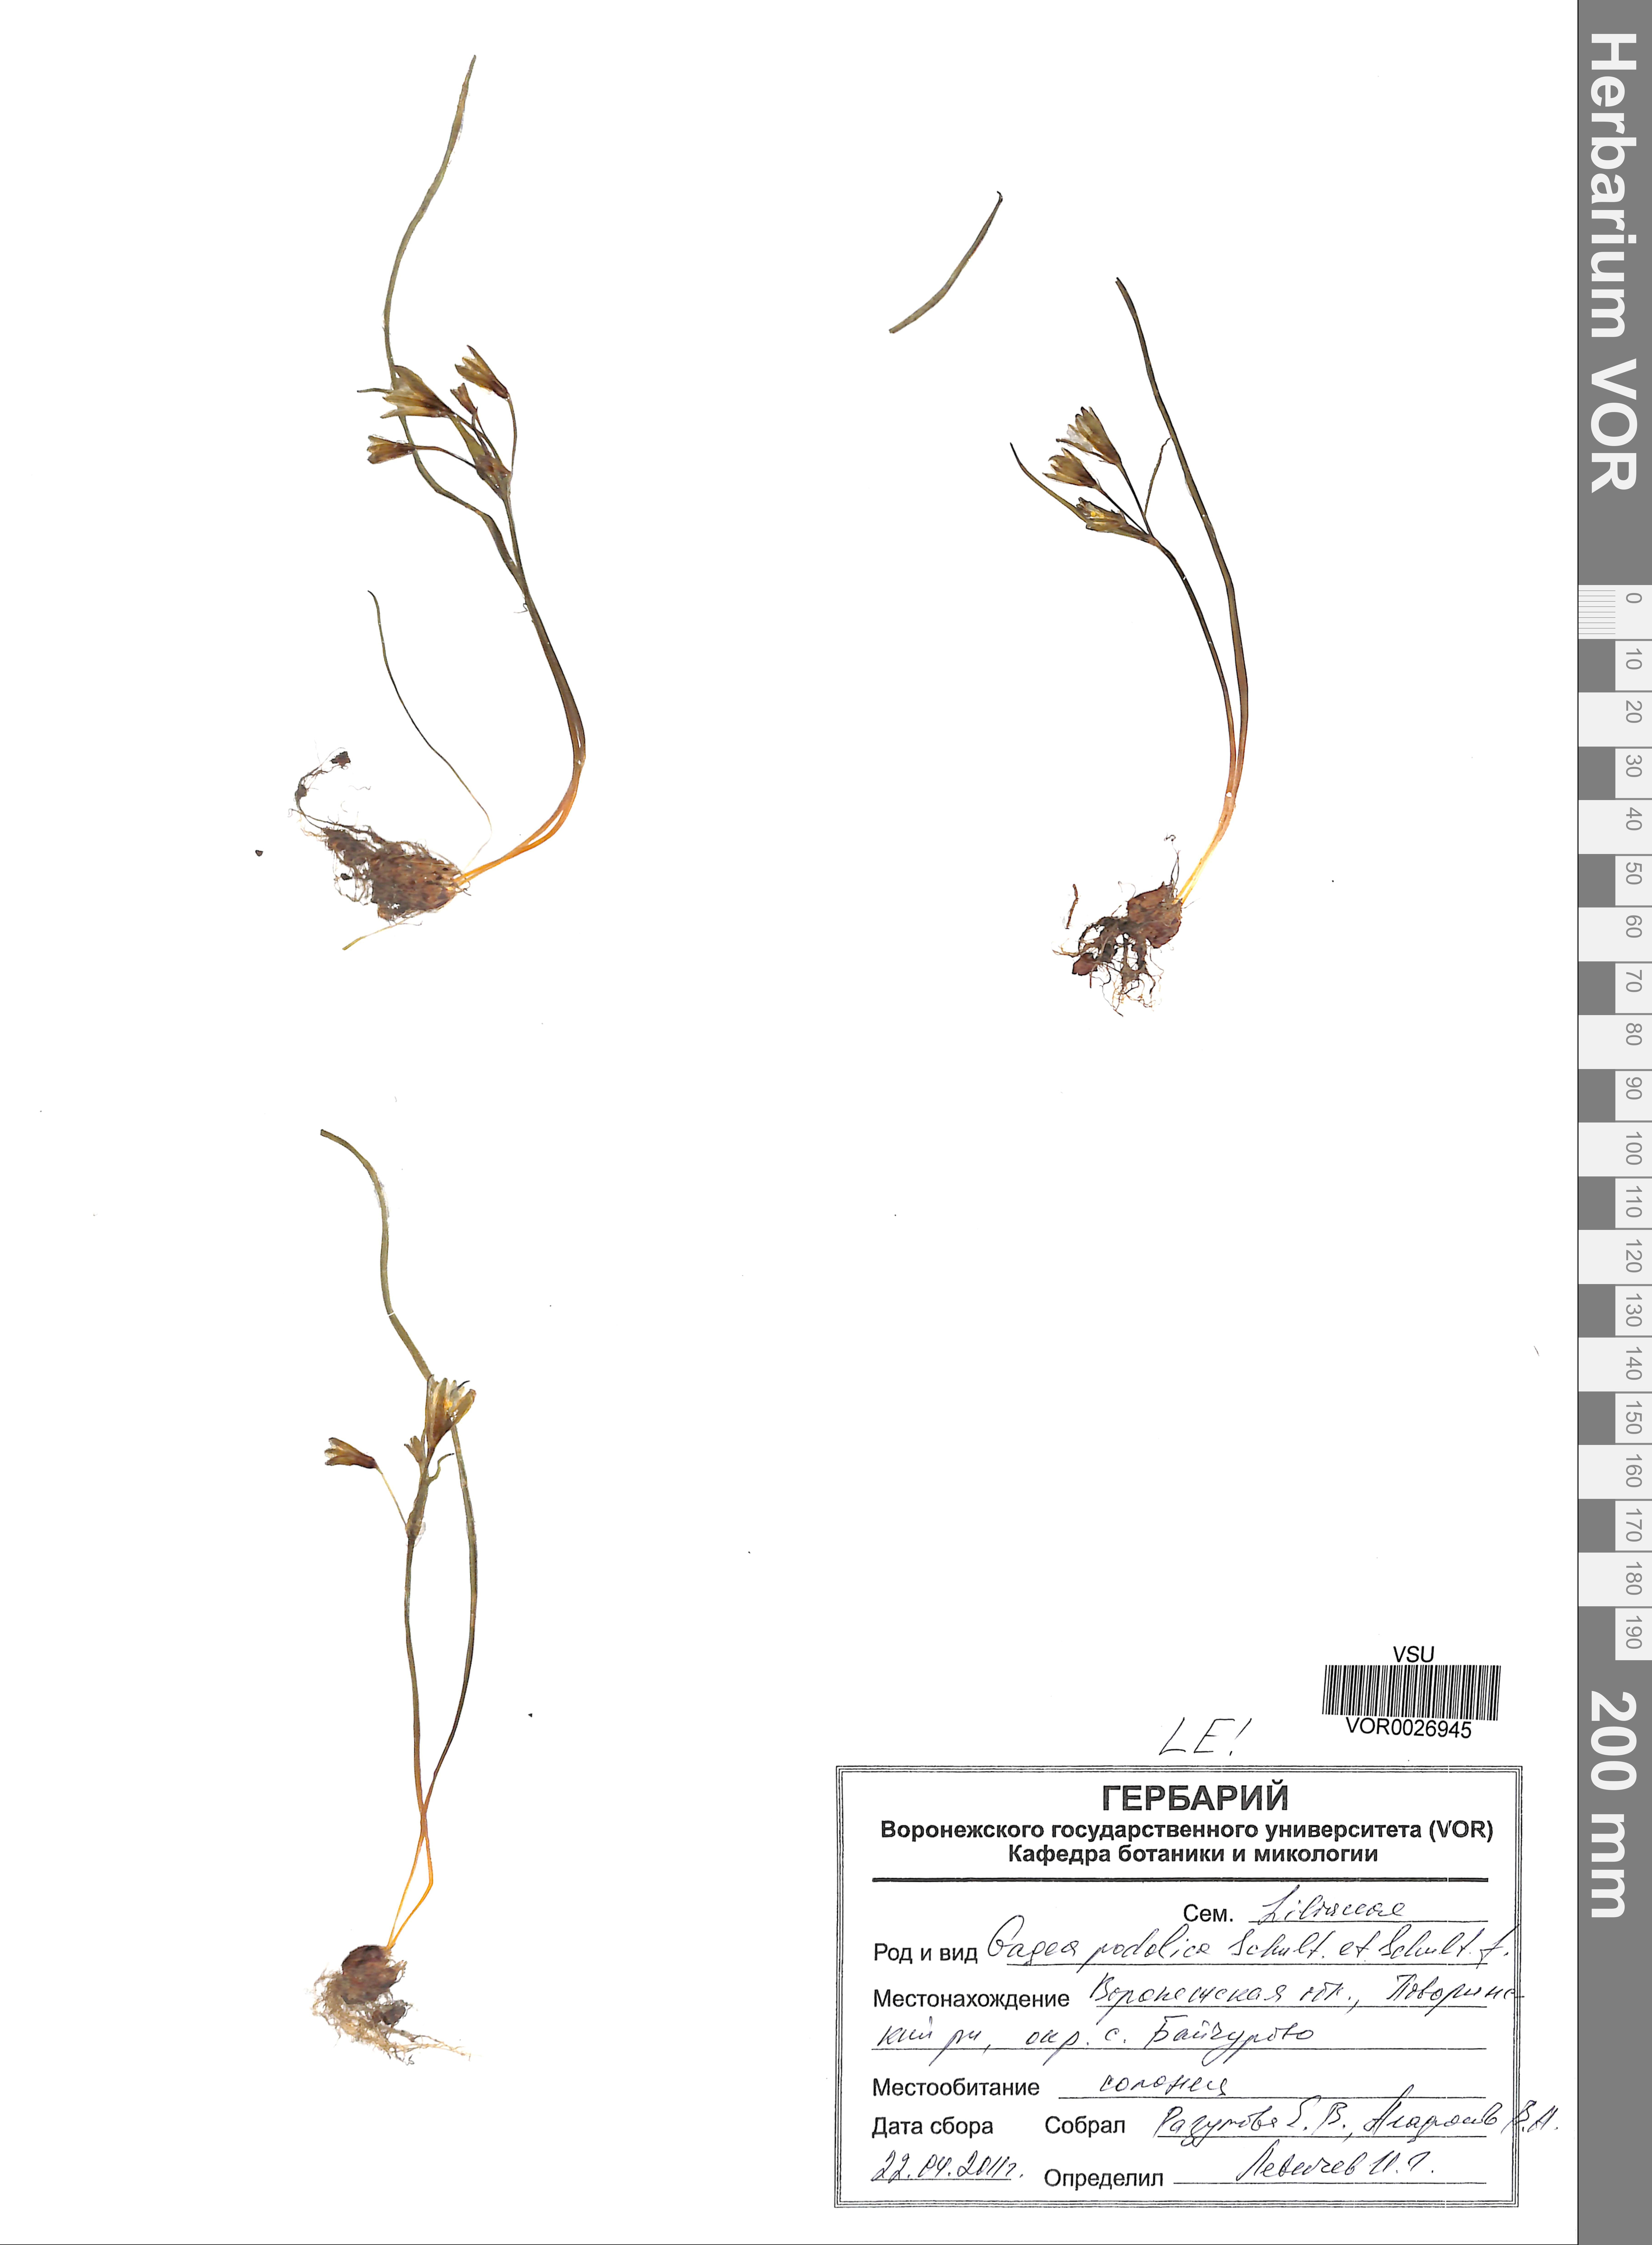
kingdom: Plantae
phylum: Tracheophyta
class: Liliopsida
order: Liliales
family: Liliaceae
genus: Gagea
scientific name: Gagea podolica
